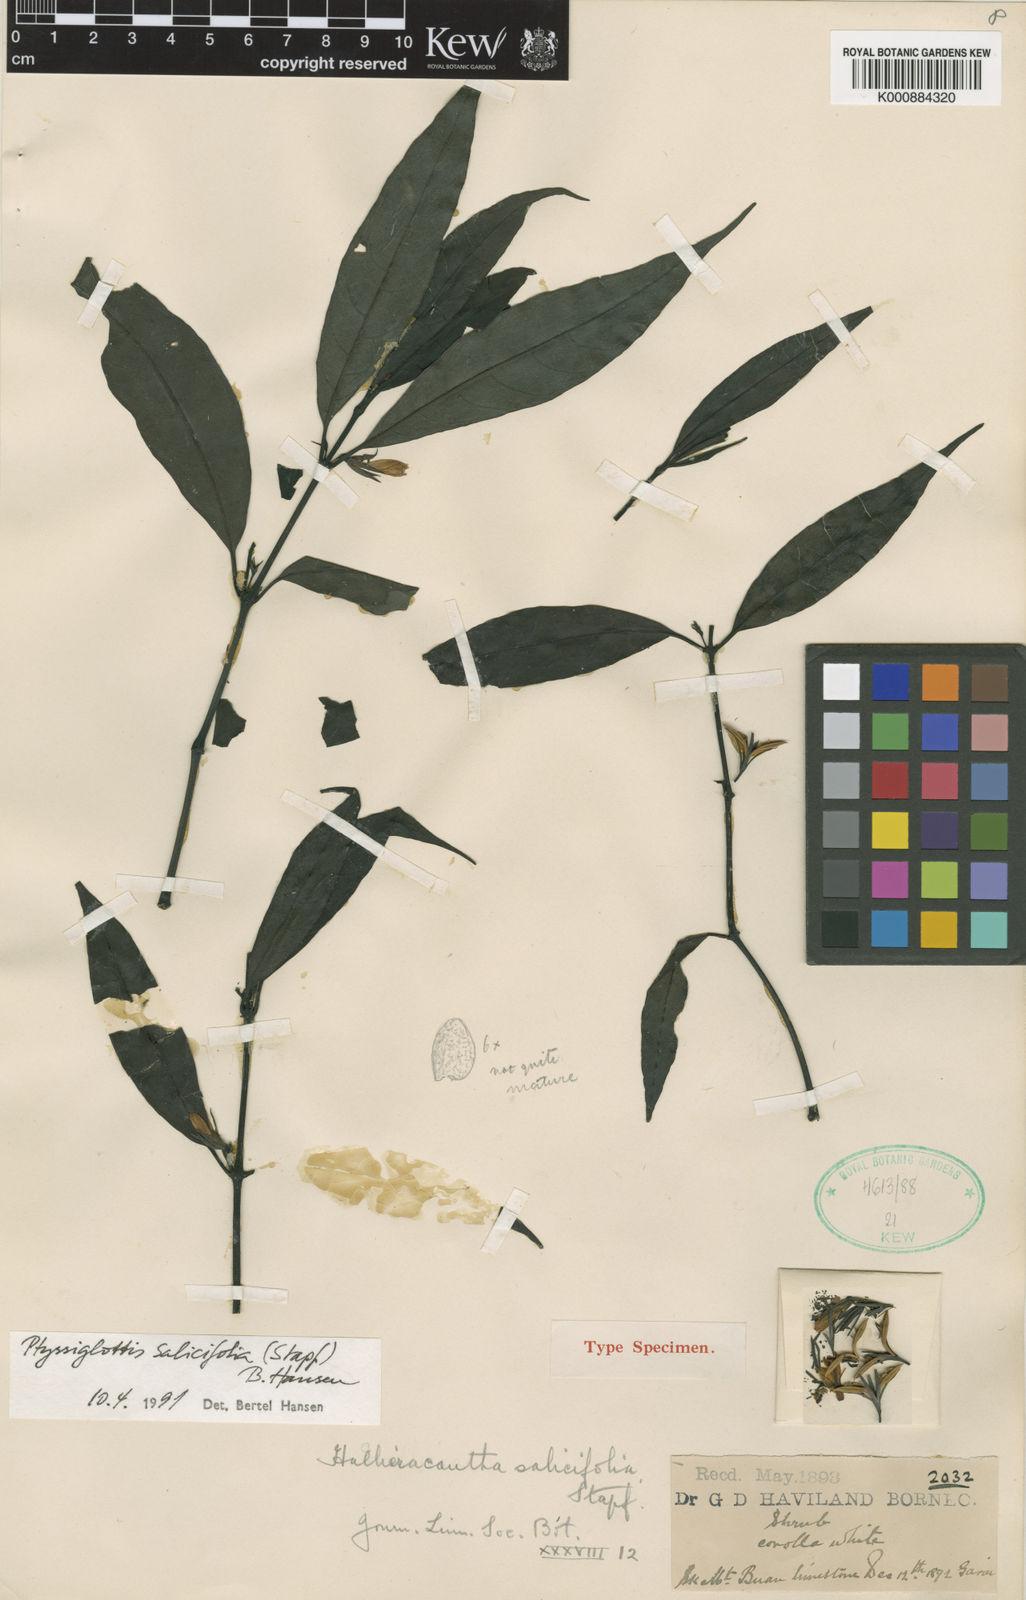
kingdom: Plantae
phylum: Tracheophyta
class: Magnoliopsida
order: Lamiales
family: Acanthaceae
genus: Ptyssiglottis
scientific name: Ptyssiglottis salicifolia
